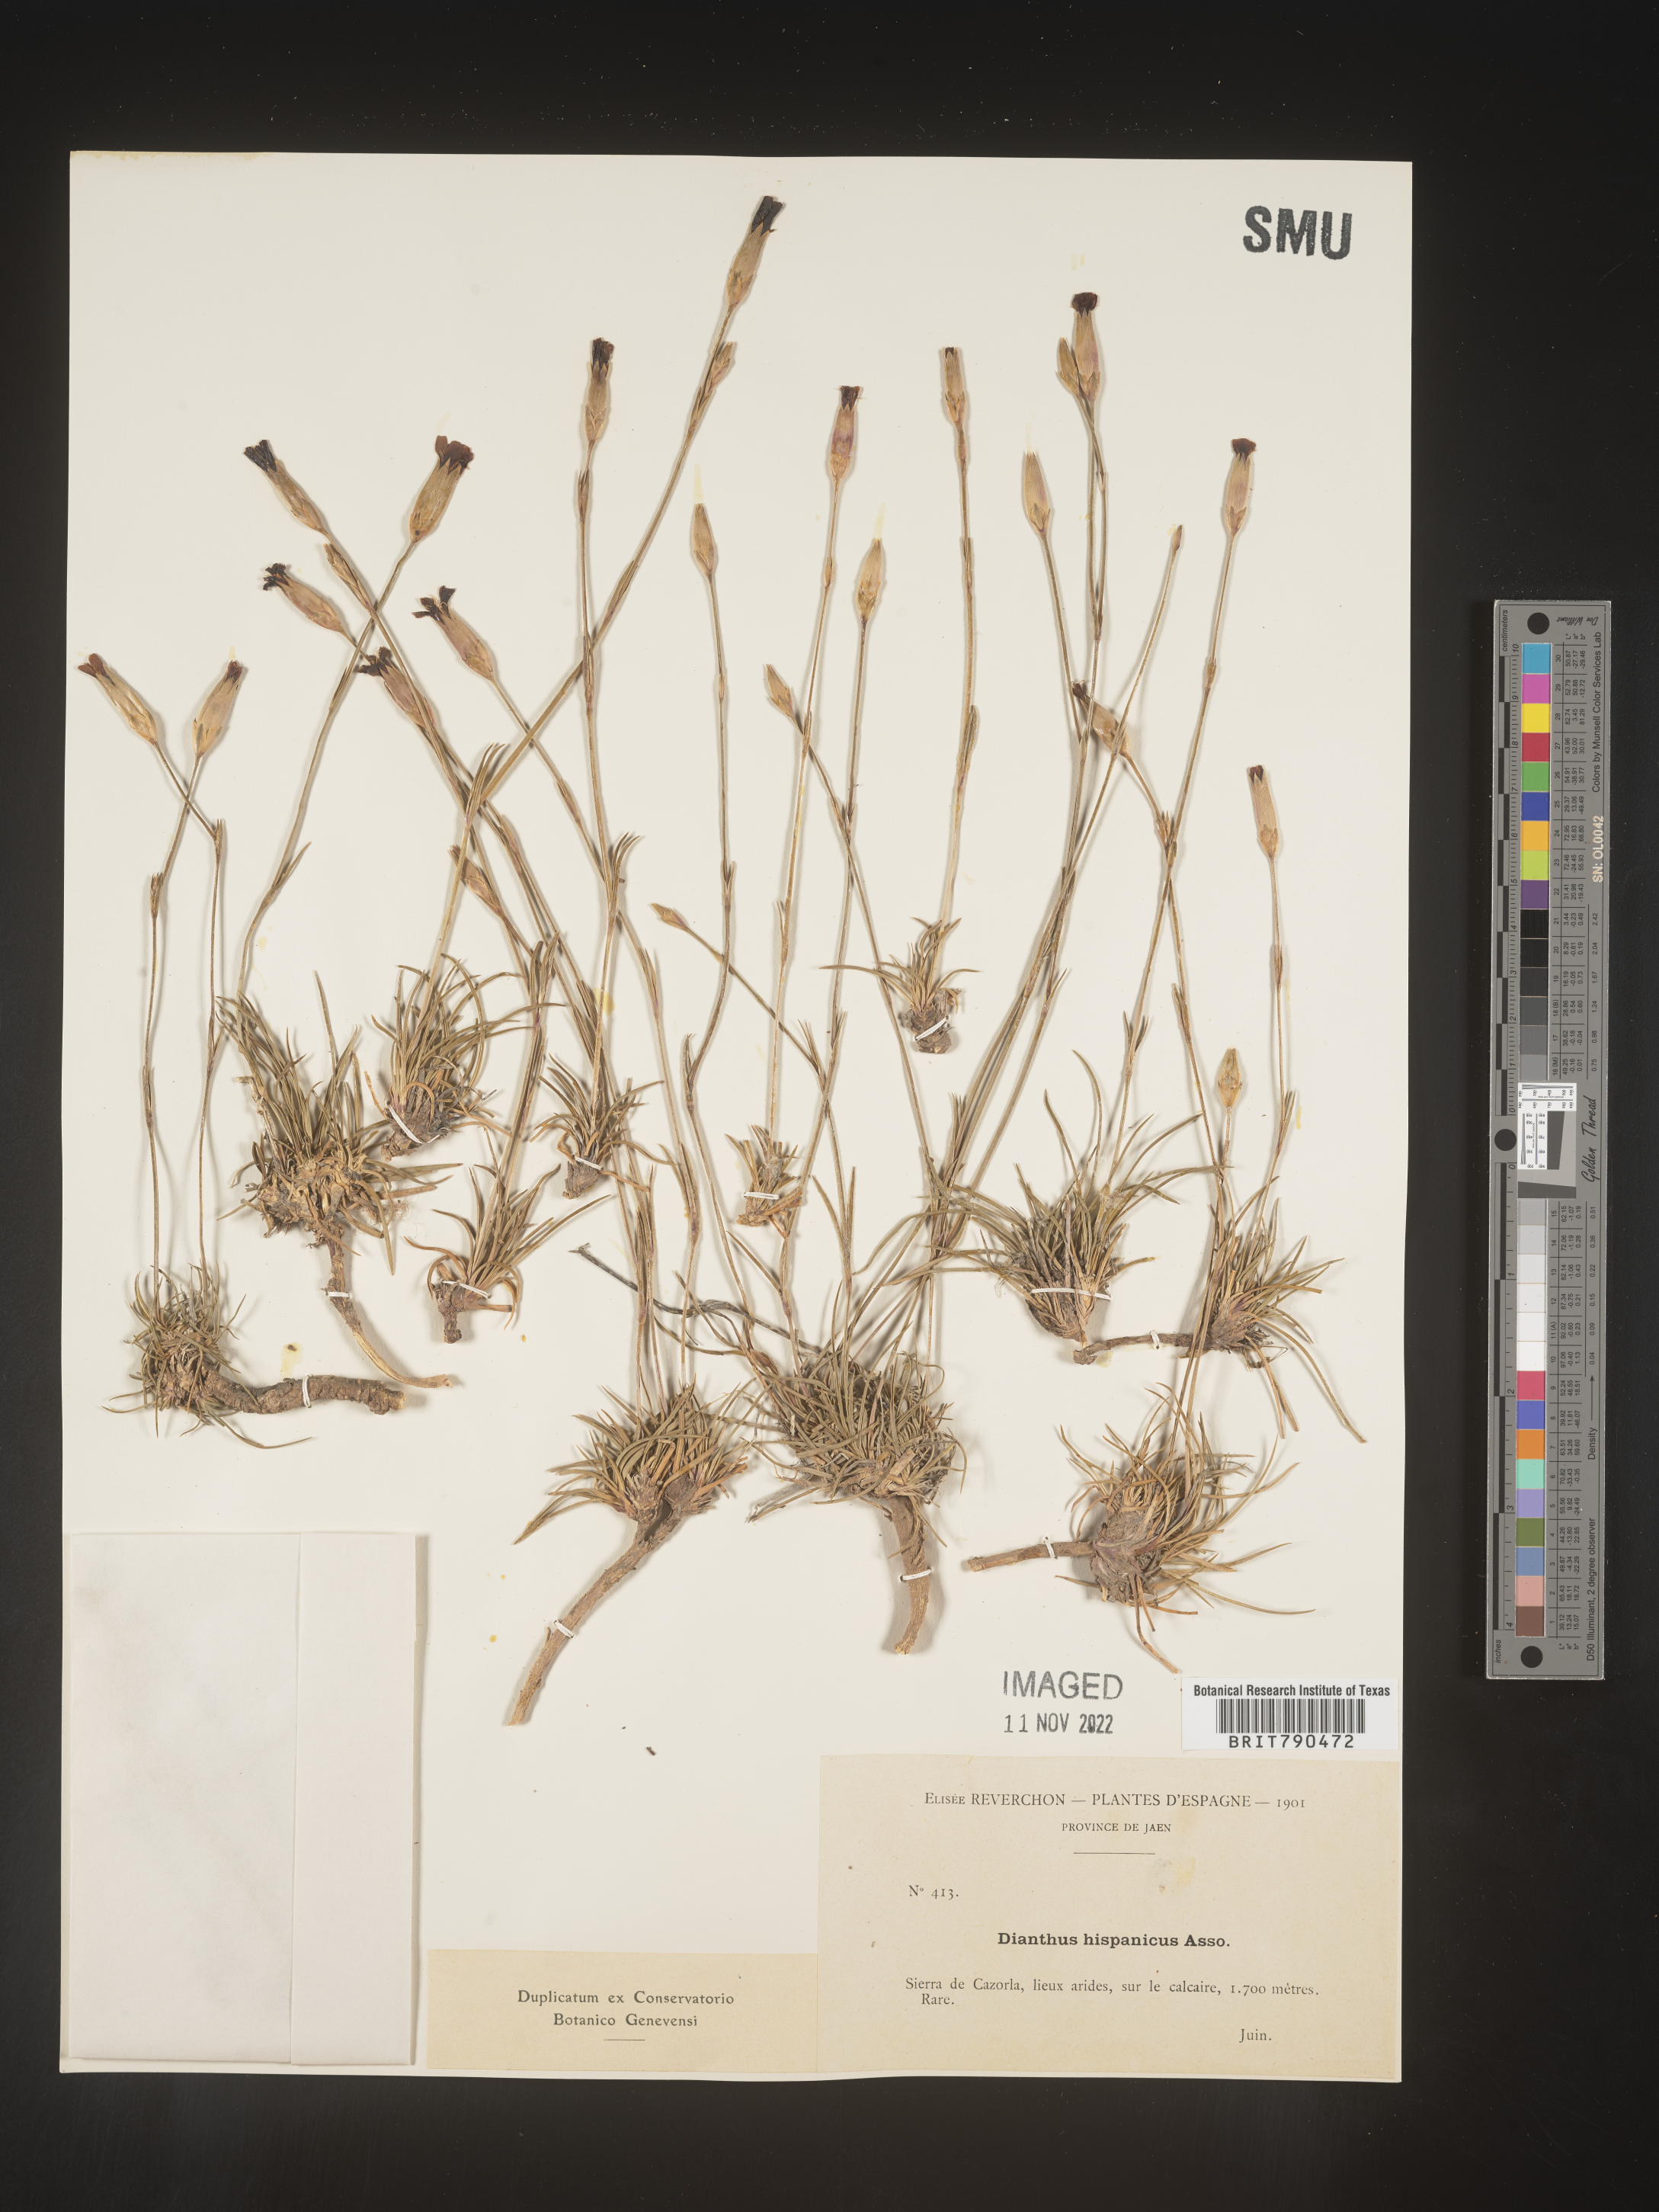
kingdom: Plantae
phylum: Tracheophyta
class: Magnoliopsida
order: Caryophyllales
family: Caryophyllaceae
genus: Dianthus
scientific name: Dianthus
